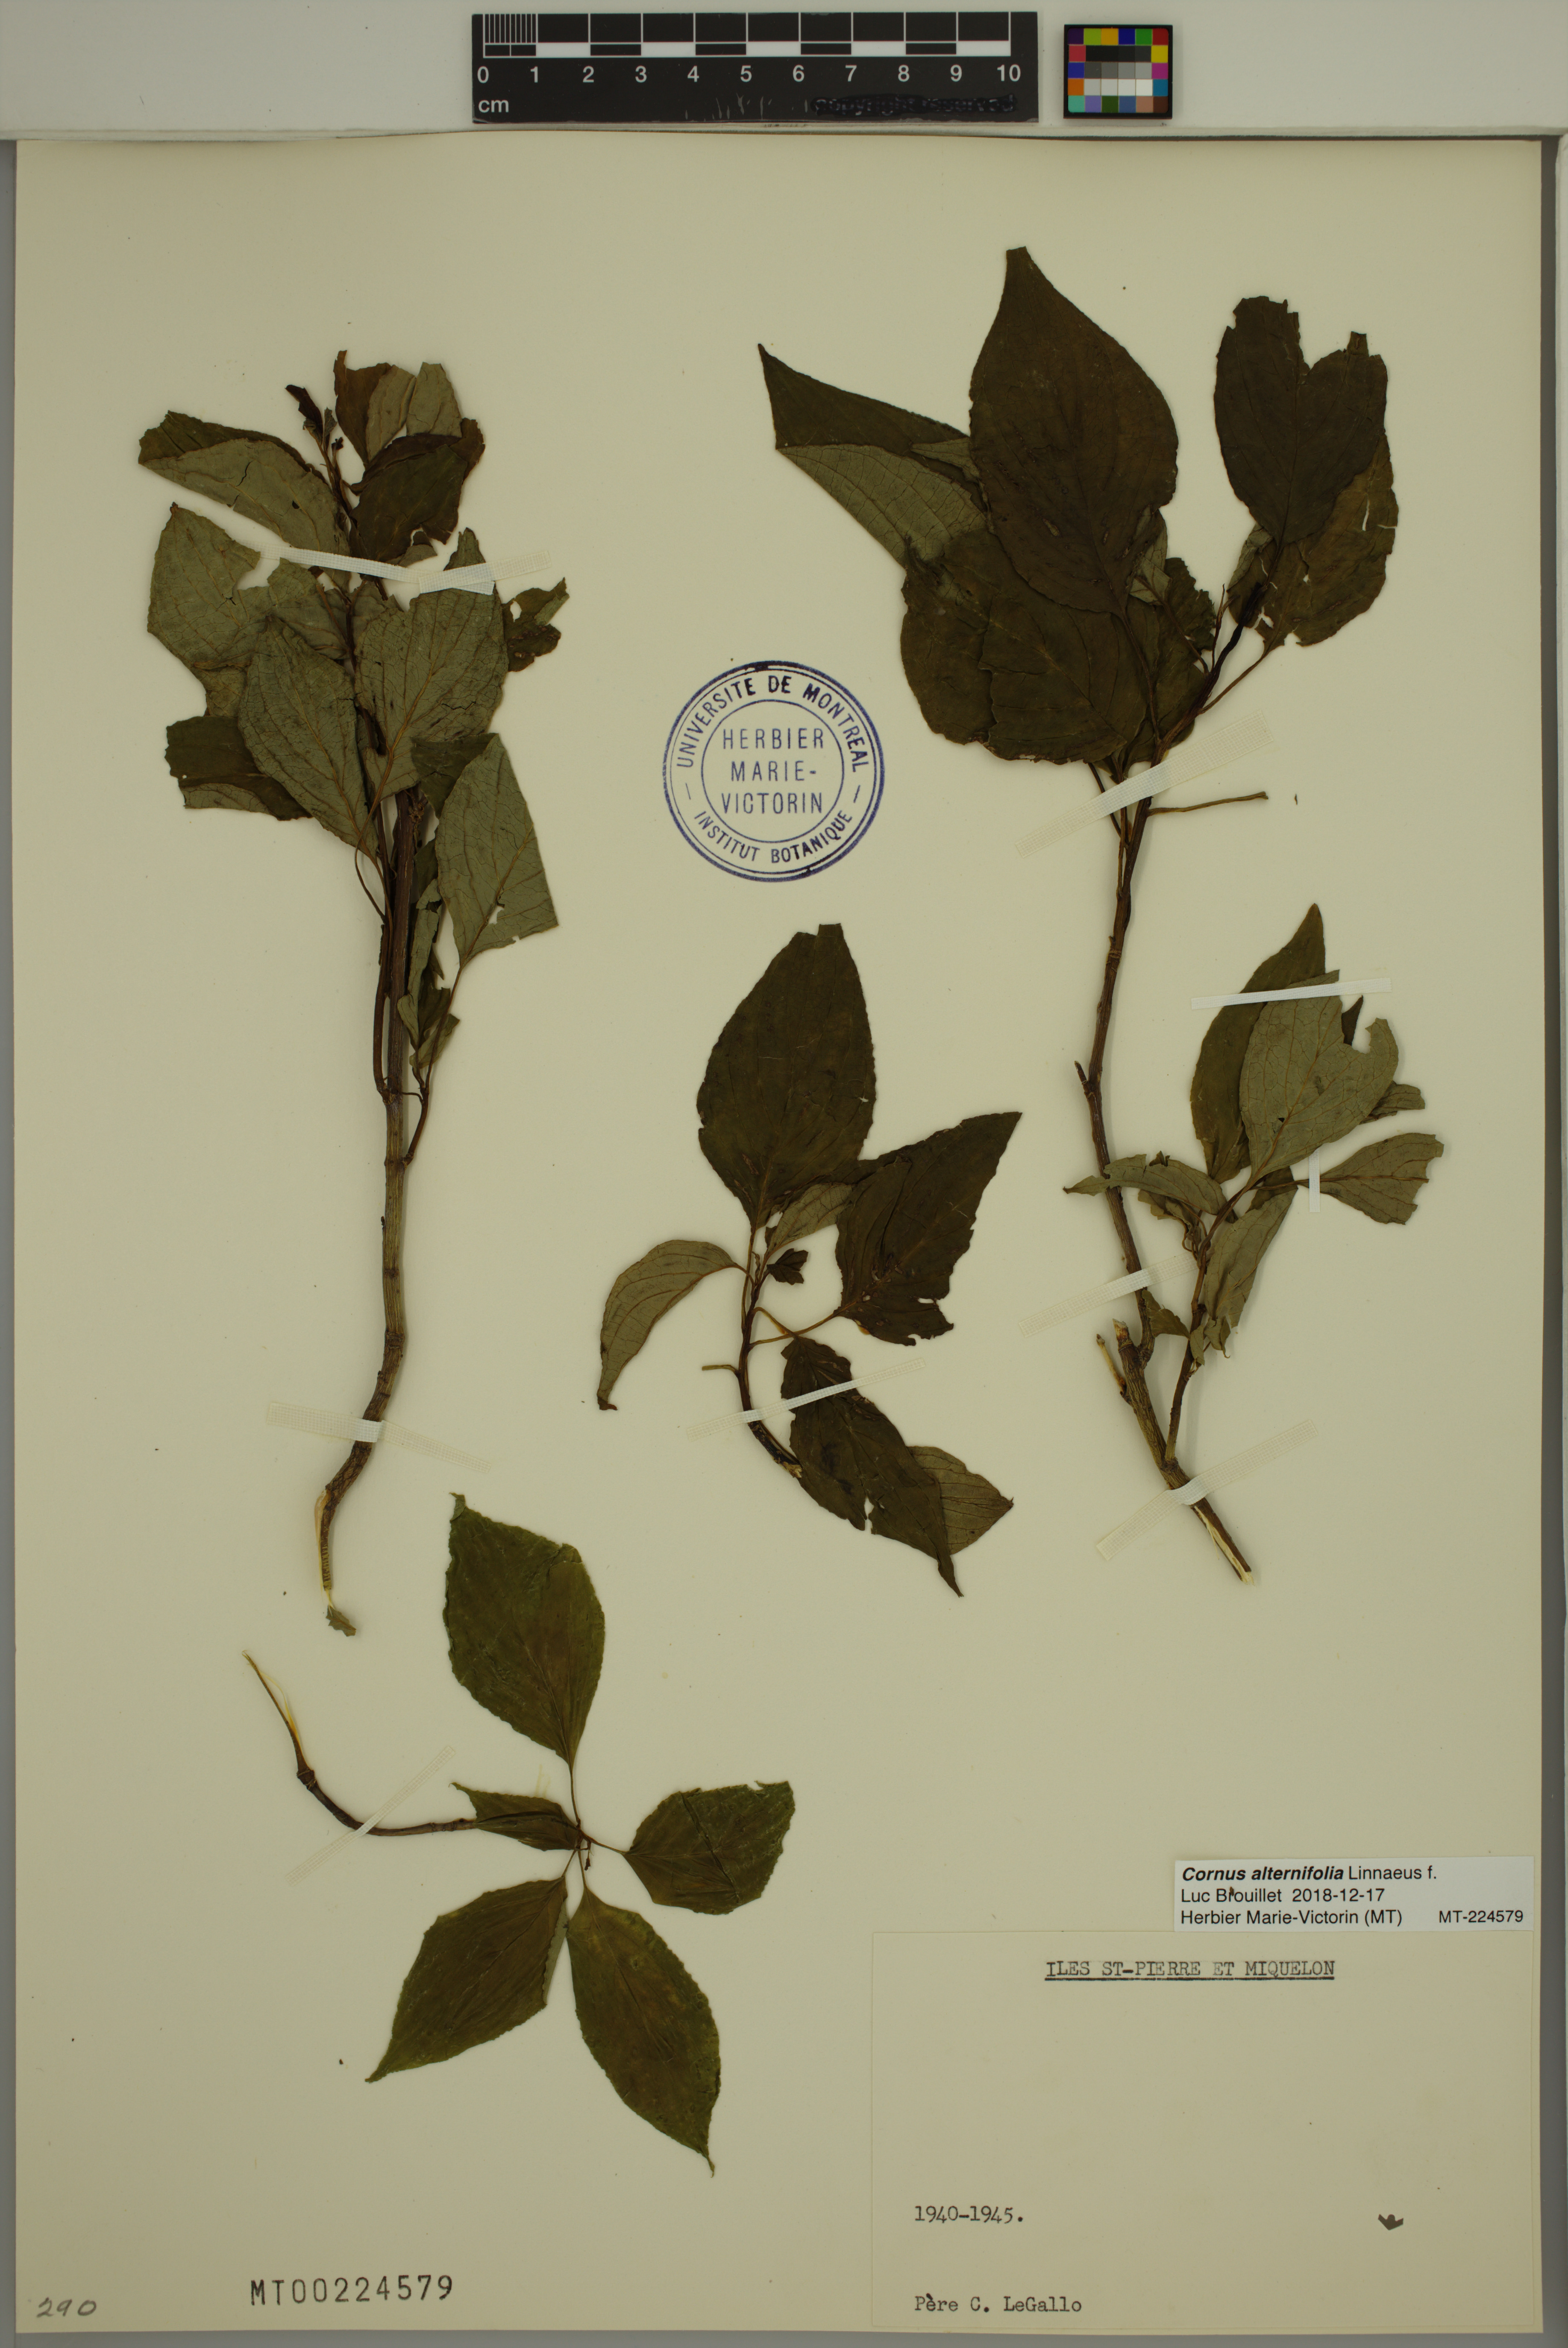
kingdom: Plantae
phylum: Tracheophyta
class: Magnoliopsida
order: Cornales
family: Cornaceae
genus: Cornus
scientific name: Cornus alternifolia
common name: Pagoda dogwood
